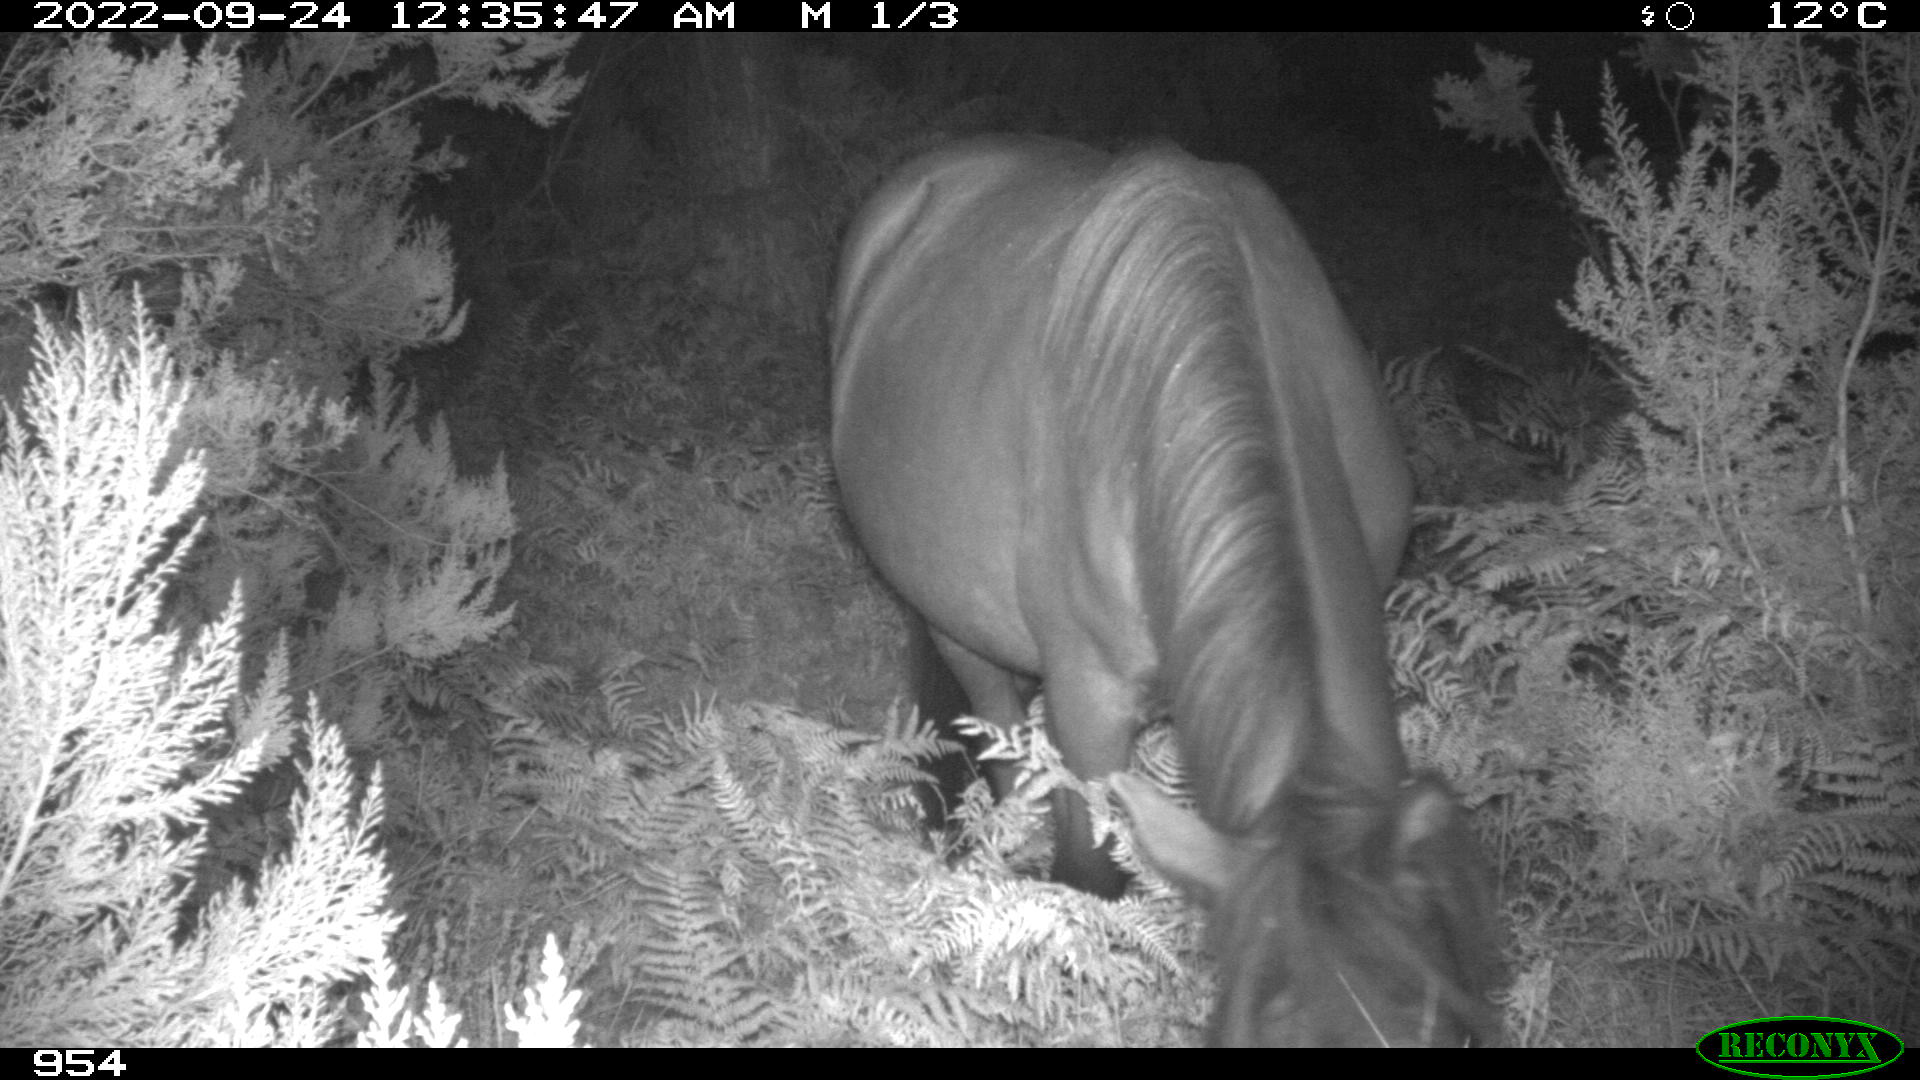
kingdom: Animalia
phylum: Chordata
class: Mammalia
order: Perissodactyla
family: Equidae
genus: Equus
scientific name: Equus caballus
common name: Horse
